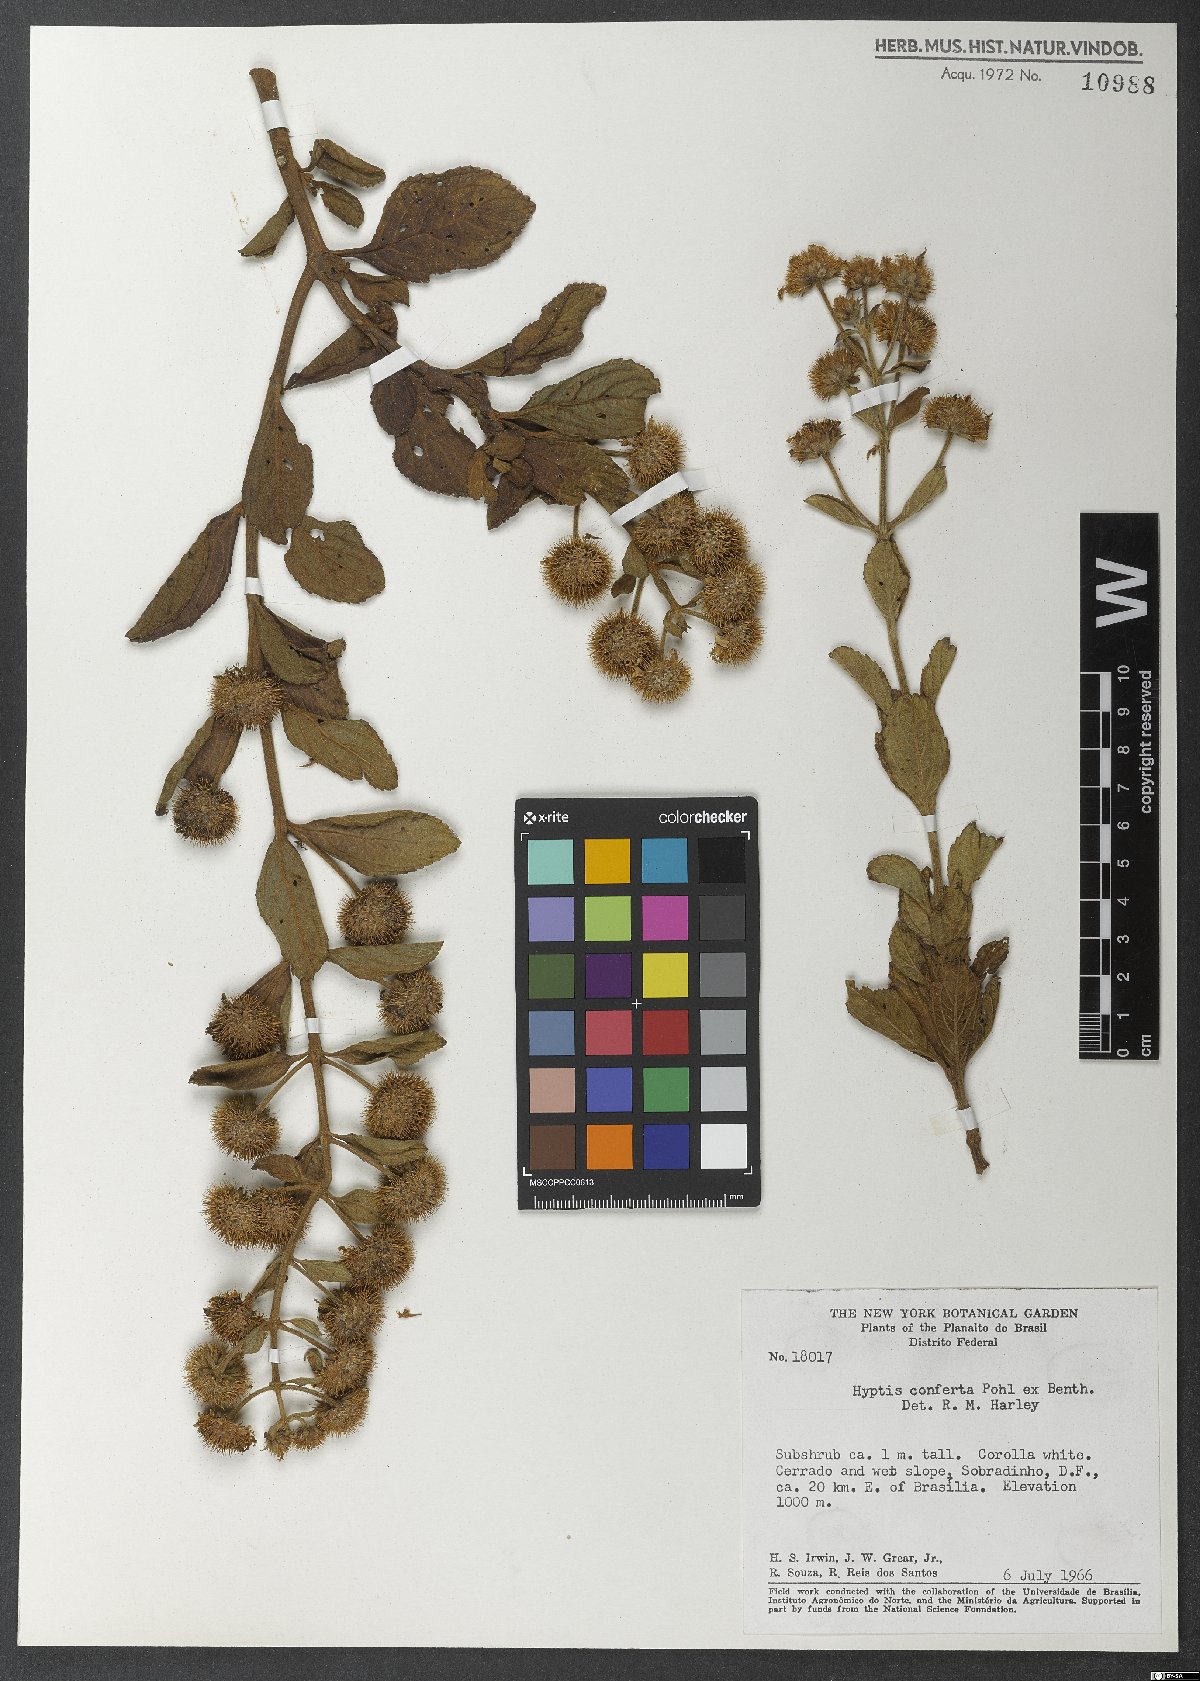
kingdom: Plantae
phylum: Tracheophyta
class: Magnoliopsida
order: Lamiales
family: Lamiaceae
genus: Hyptis
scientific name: Hyptis conferta
